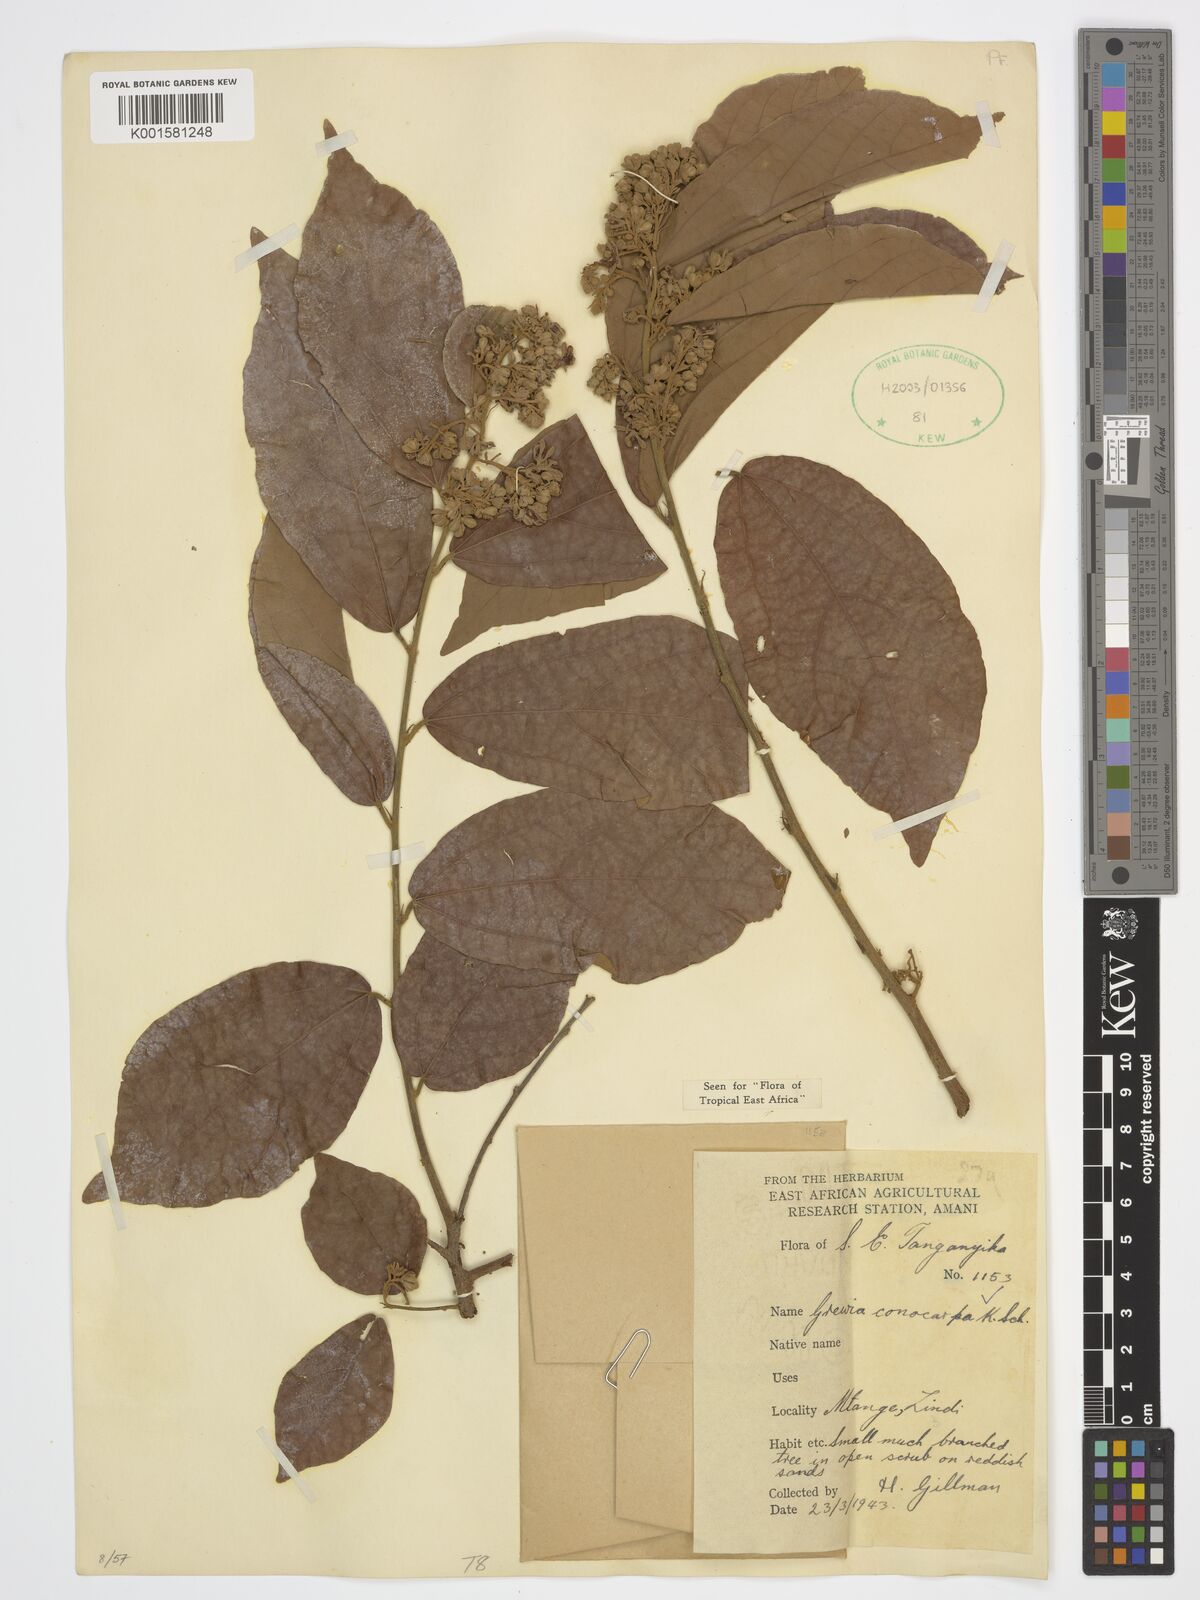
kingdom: Plantae
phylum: Tracheophyta
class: Magnoliopsida
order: Malvales
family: Malvaceae
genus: Microcos
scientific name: Microcos conocarpa
